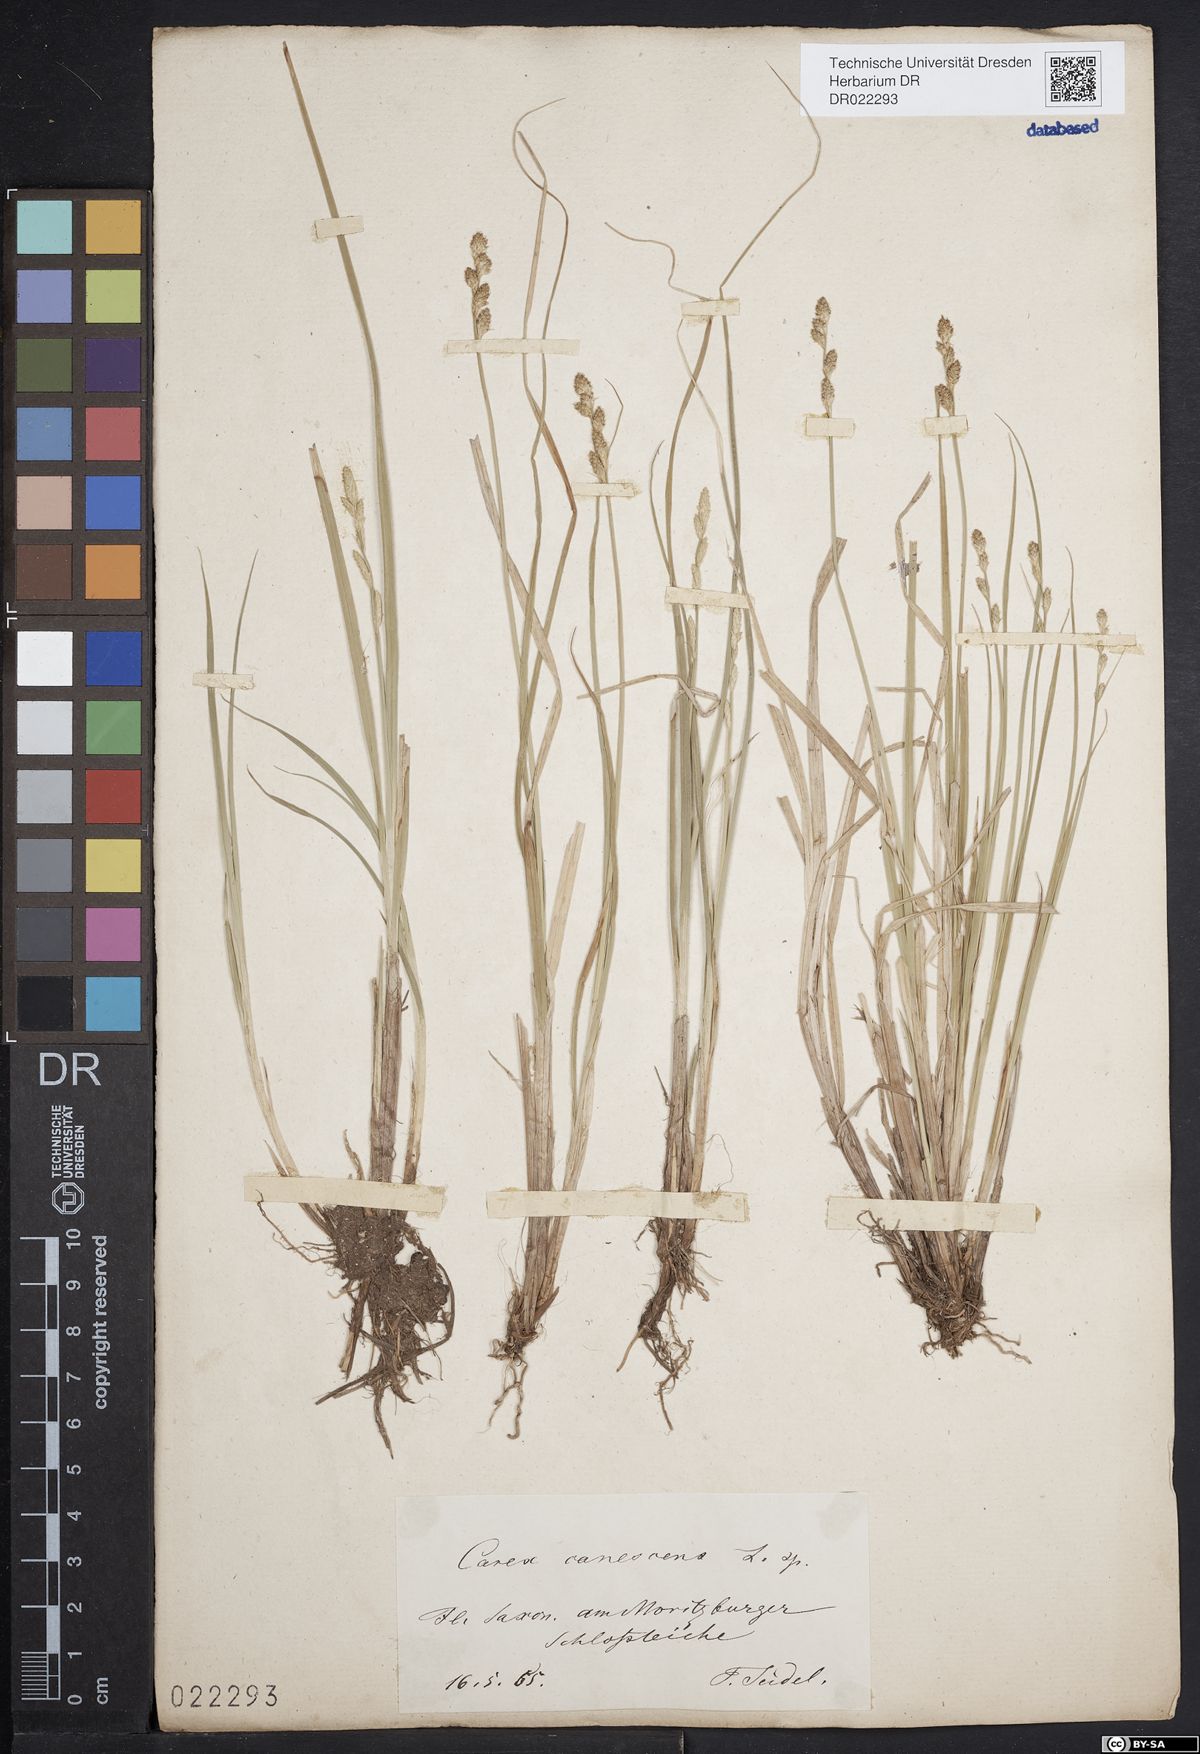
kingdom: Plantae
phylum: Tracheophyta
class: Liliopsida
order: Poales
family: Cyperaceae
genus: Carex
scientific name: Carex canescens
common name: White sedge
